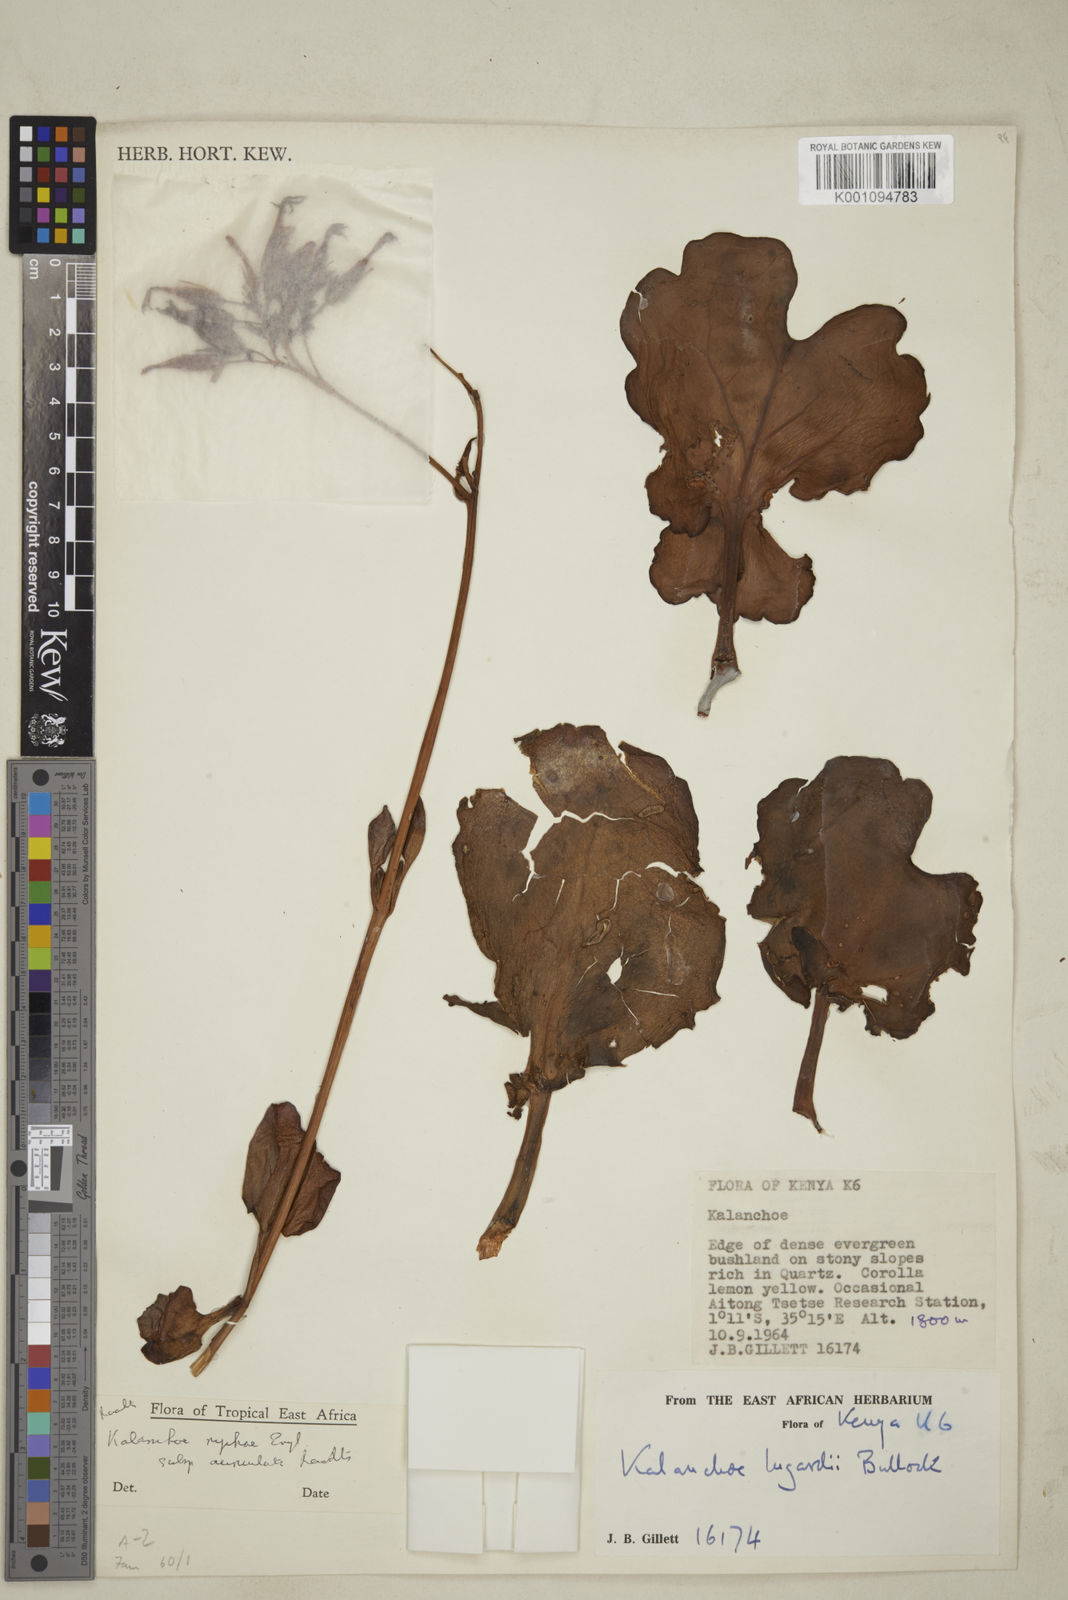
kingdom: Plantae
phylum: Tracheophyta
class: Magnoliopsida
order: Saxifragales
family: Crassulaceae
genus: Kalanchoe
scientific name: Kalanchoe nyikae
